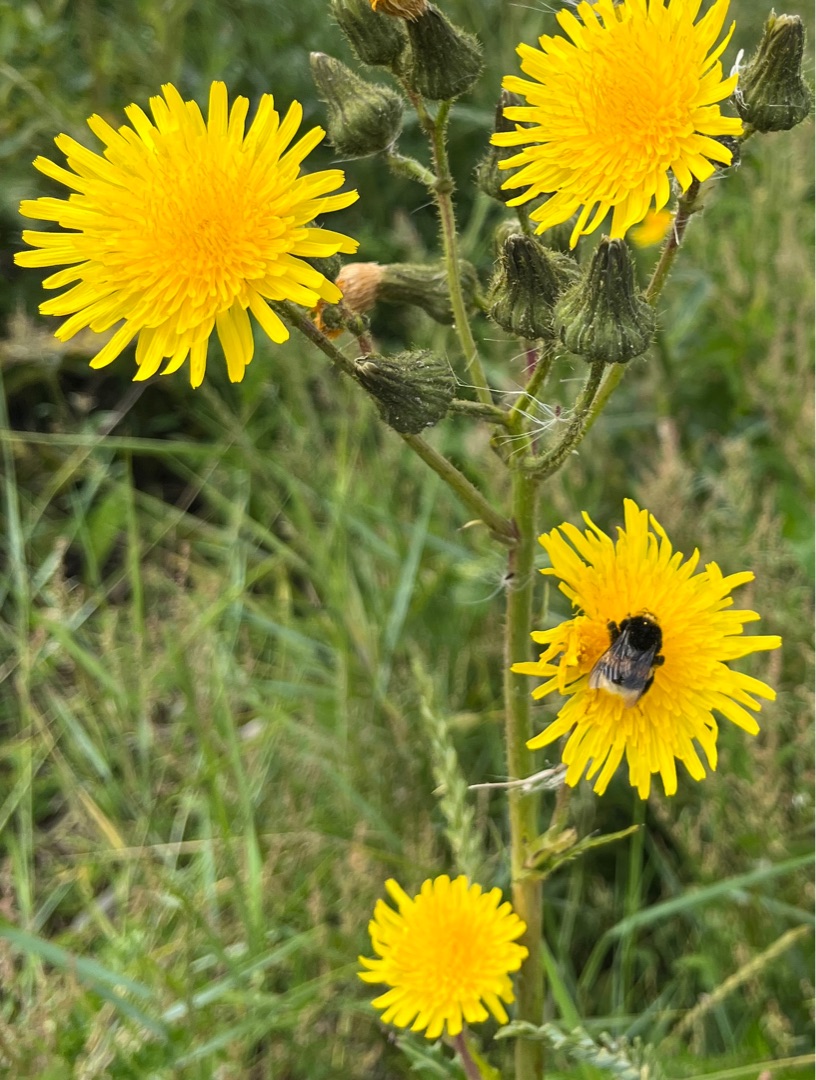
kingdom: Plantae
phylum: Tracheophyta
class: Magnoliopsida
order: Asterales
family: Asteraceae
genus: Sonchus
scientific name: Sonchus arvensis
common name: Ager-svinemælk
